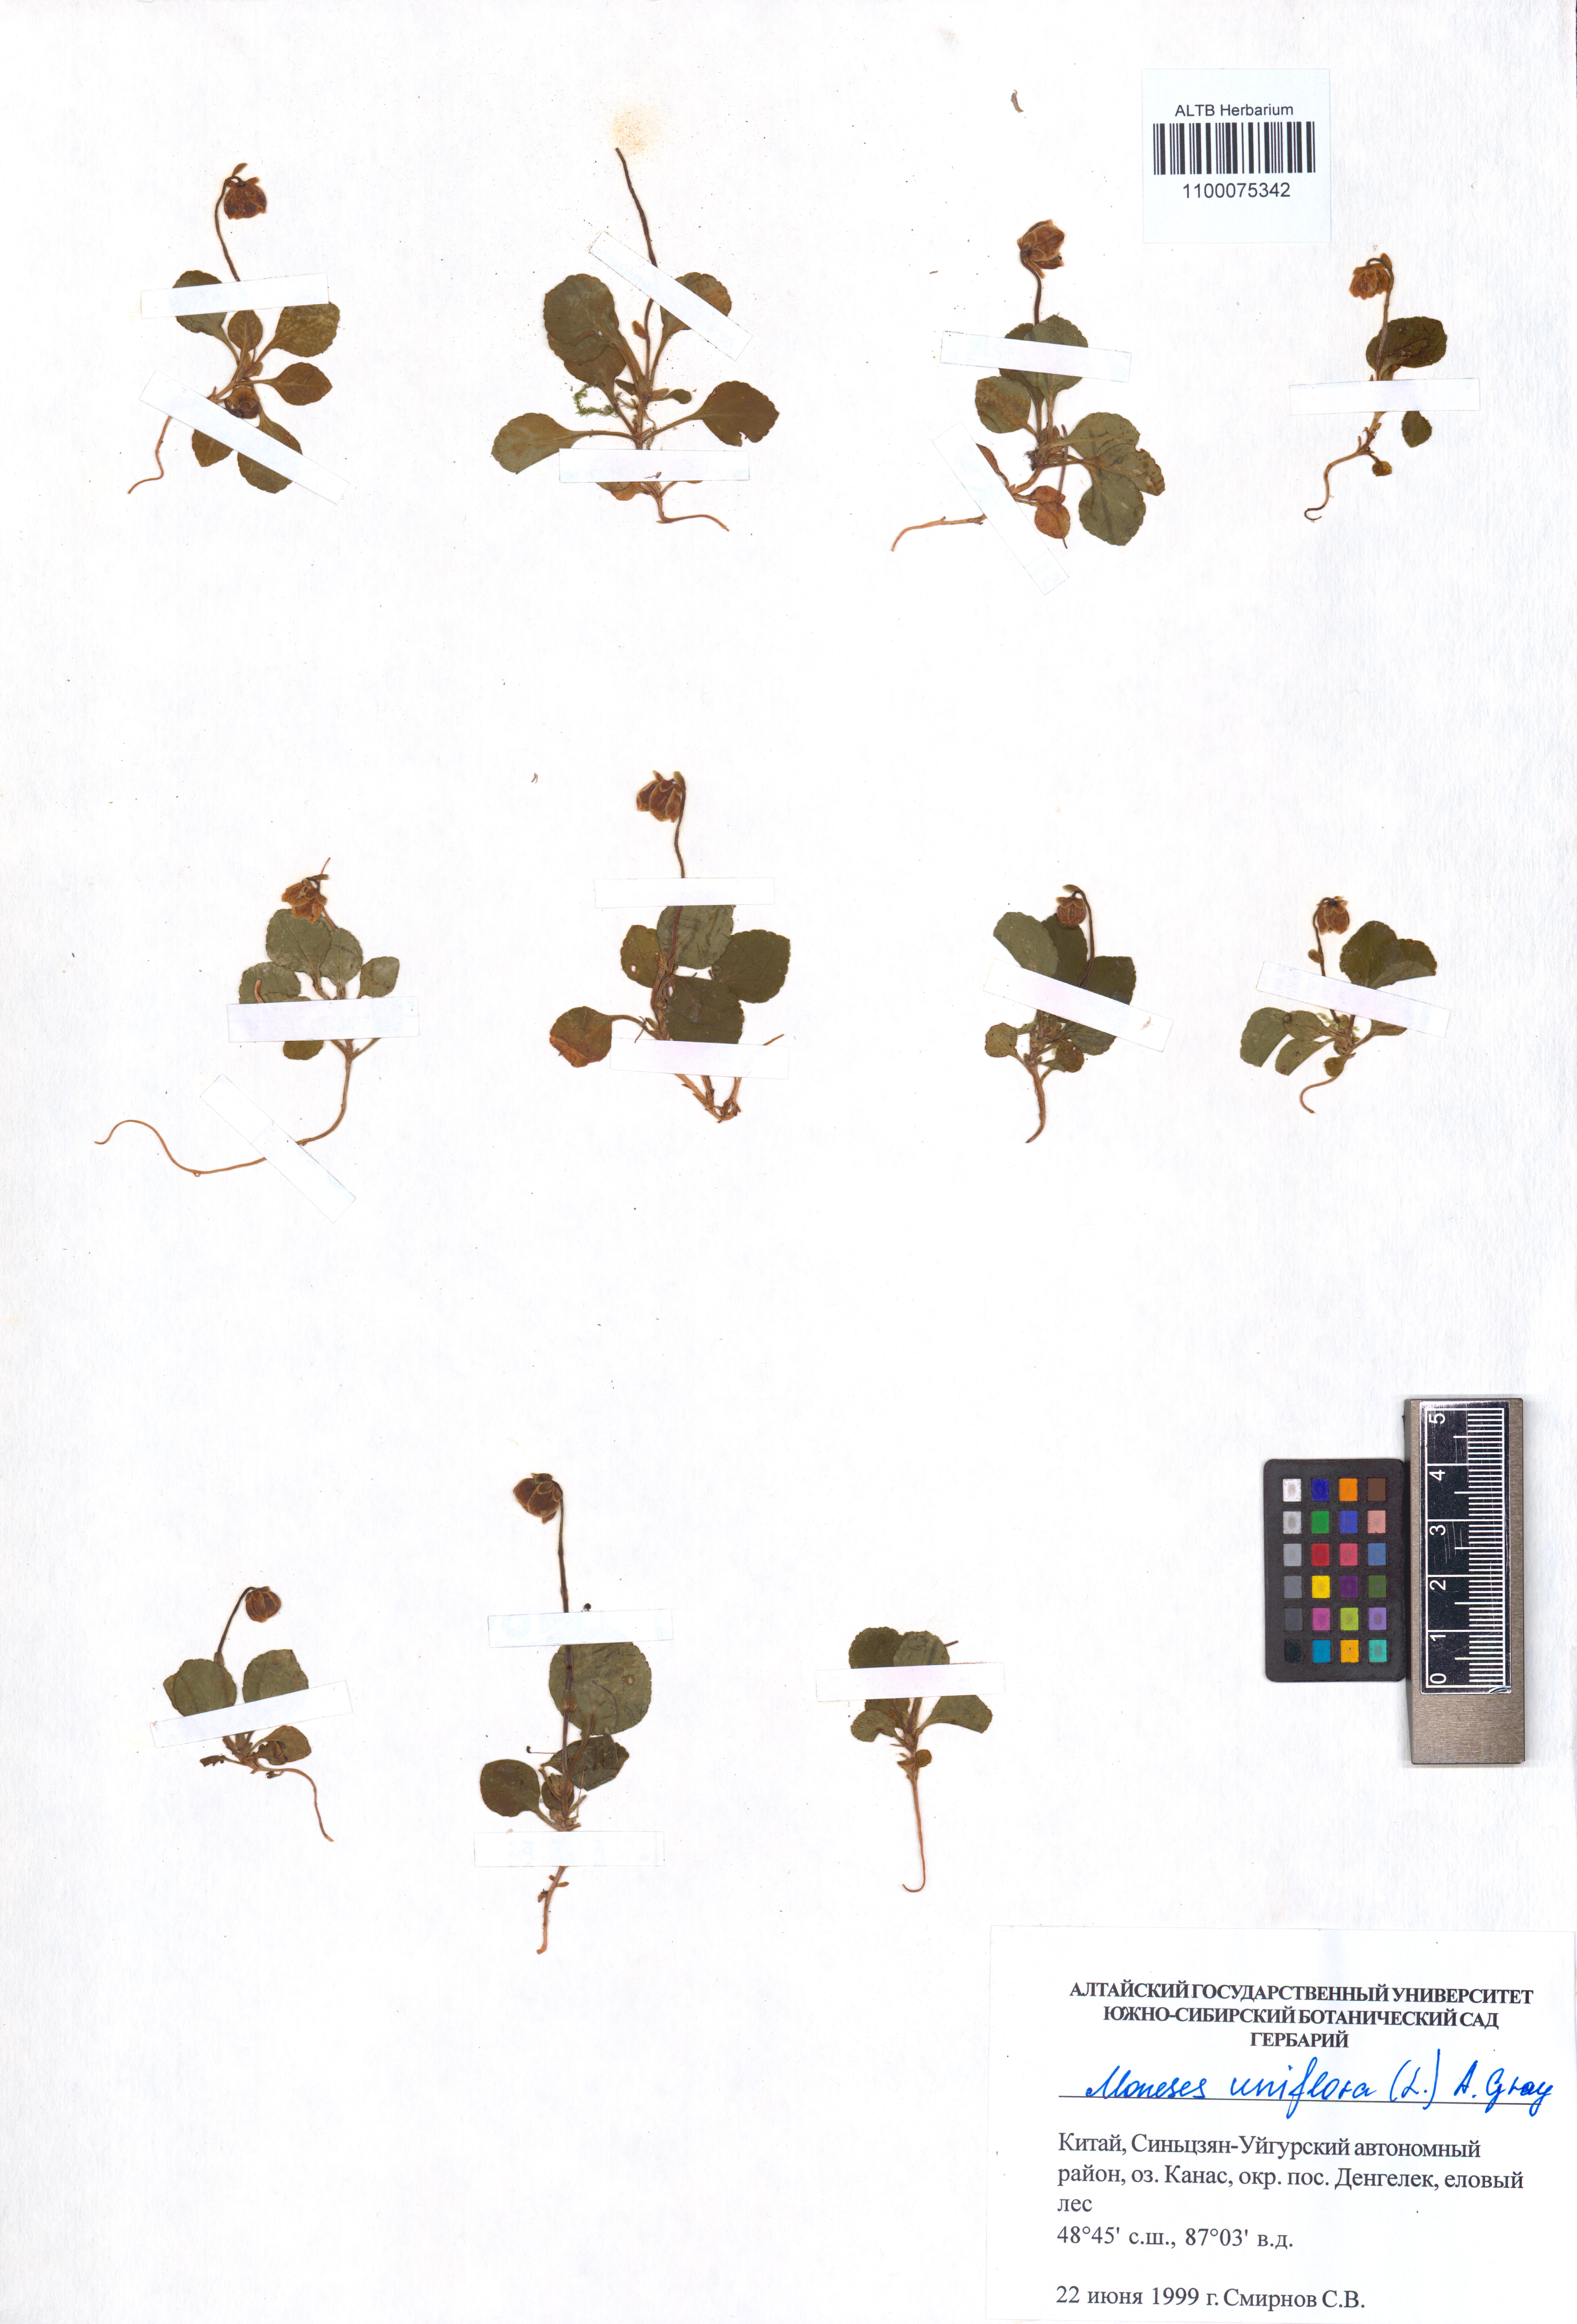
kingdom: Plantae
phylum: Tracheophyta
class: Magnoliopsida
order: Ericales
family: Ericaceae
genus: Moneses
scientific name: Moneses uniflora
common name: One-flowered wintergreen
